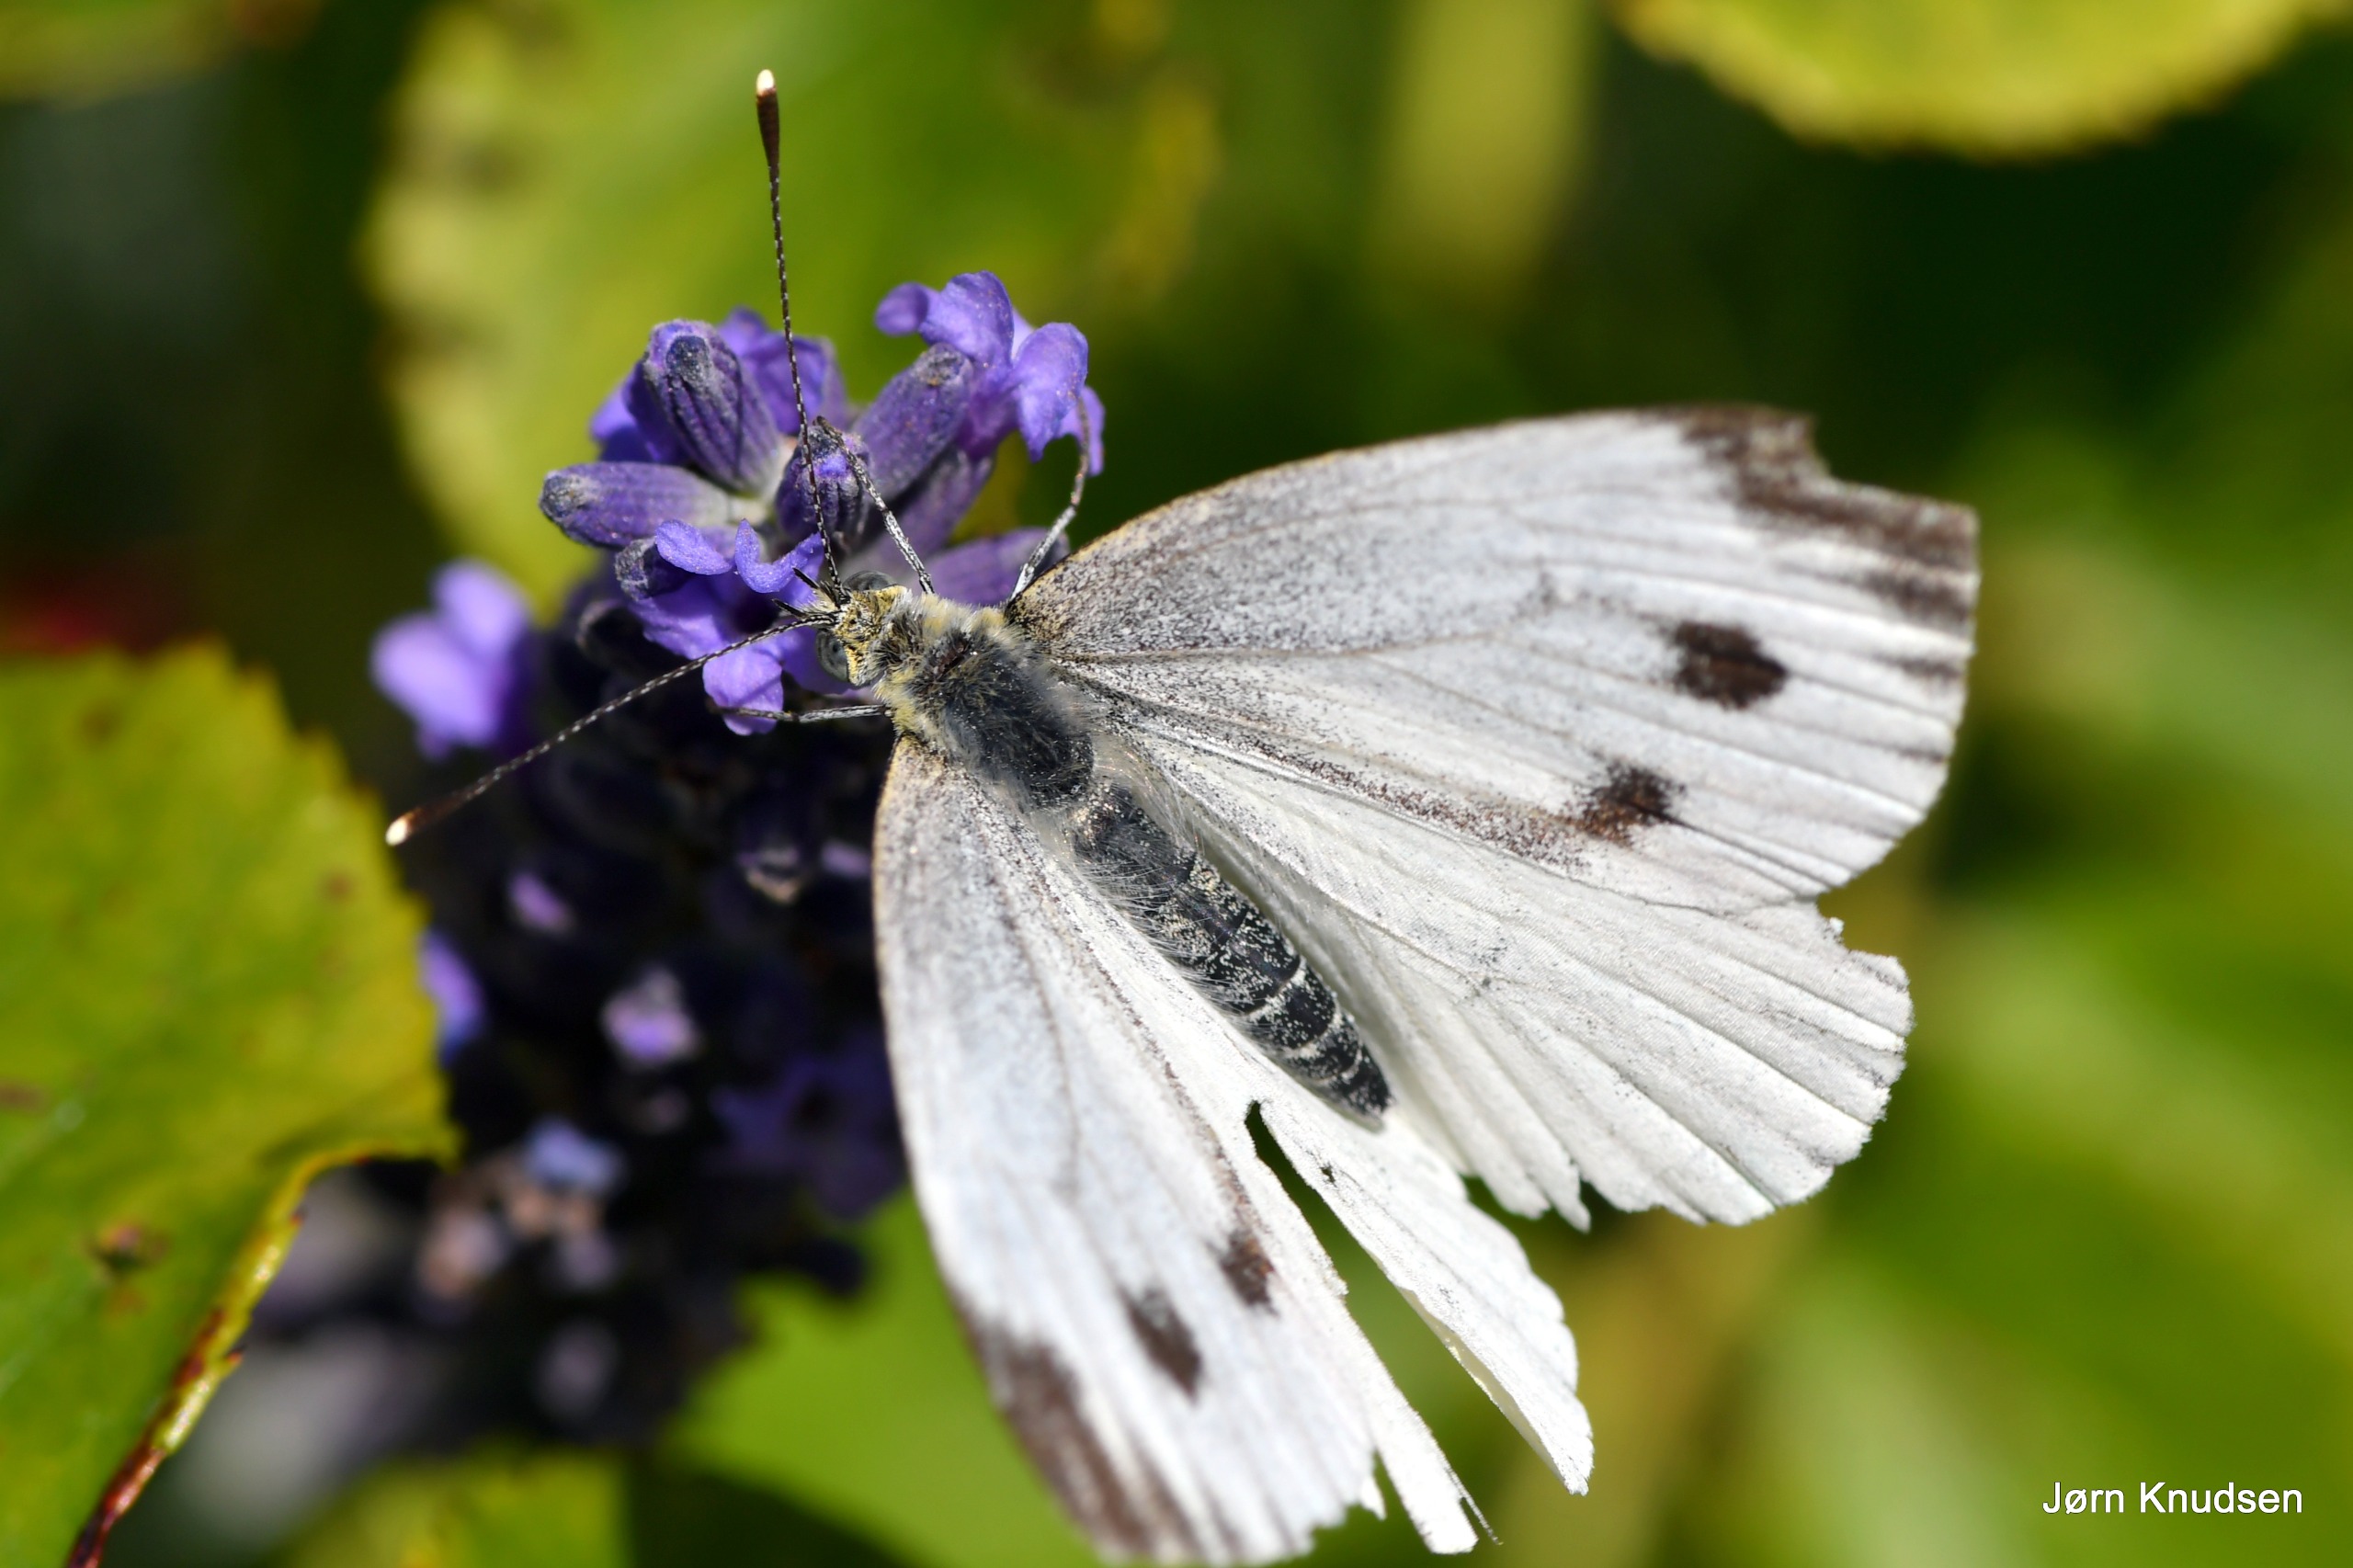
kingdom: Animalia
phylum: Arthropoda
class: Insecta
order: Lepidoptera
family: Pieridae
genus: Pieris
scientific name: Pieris napi
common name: Grønåret kålsommerfugl
